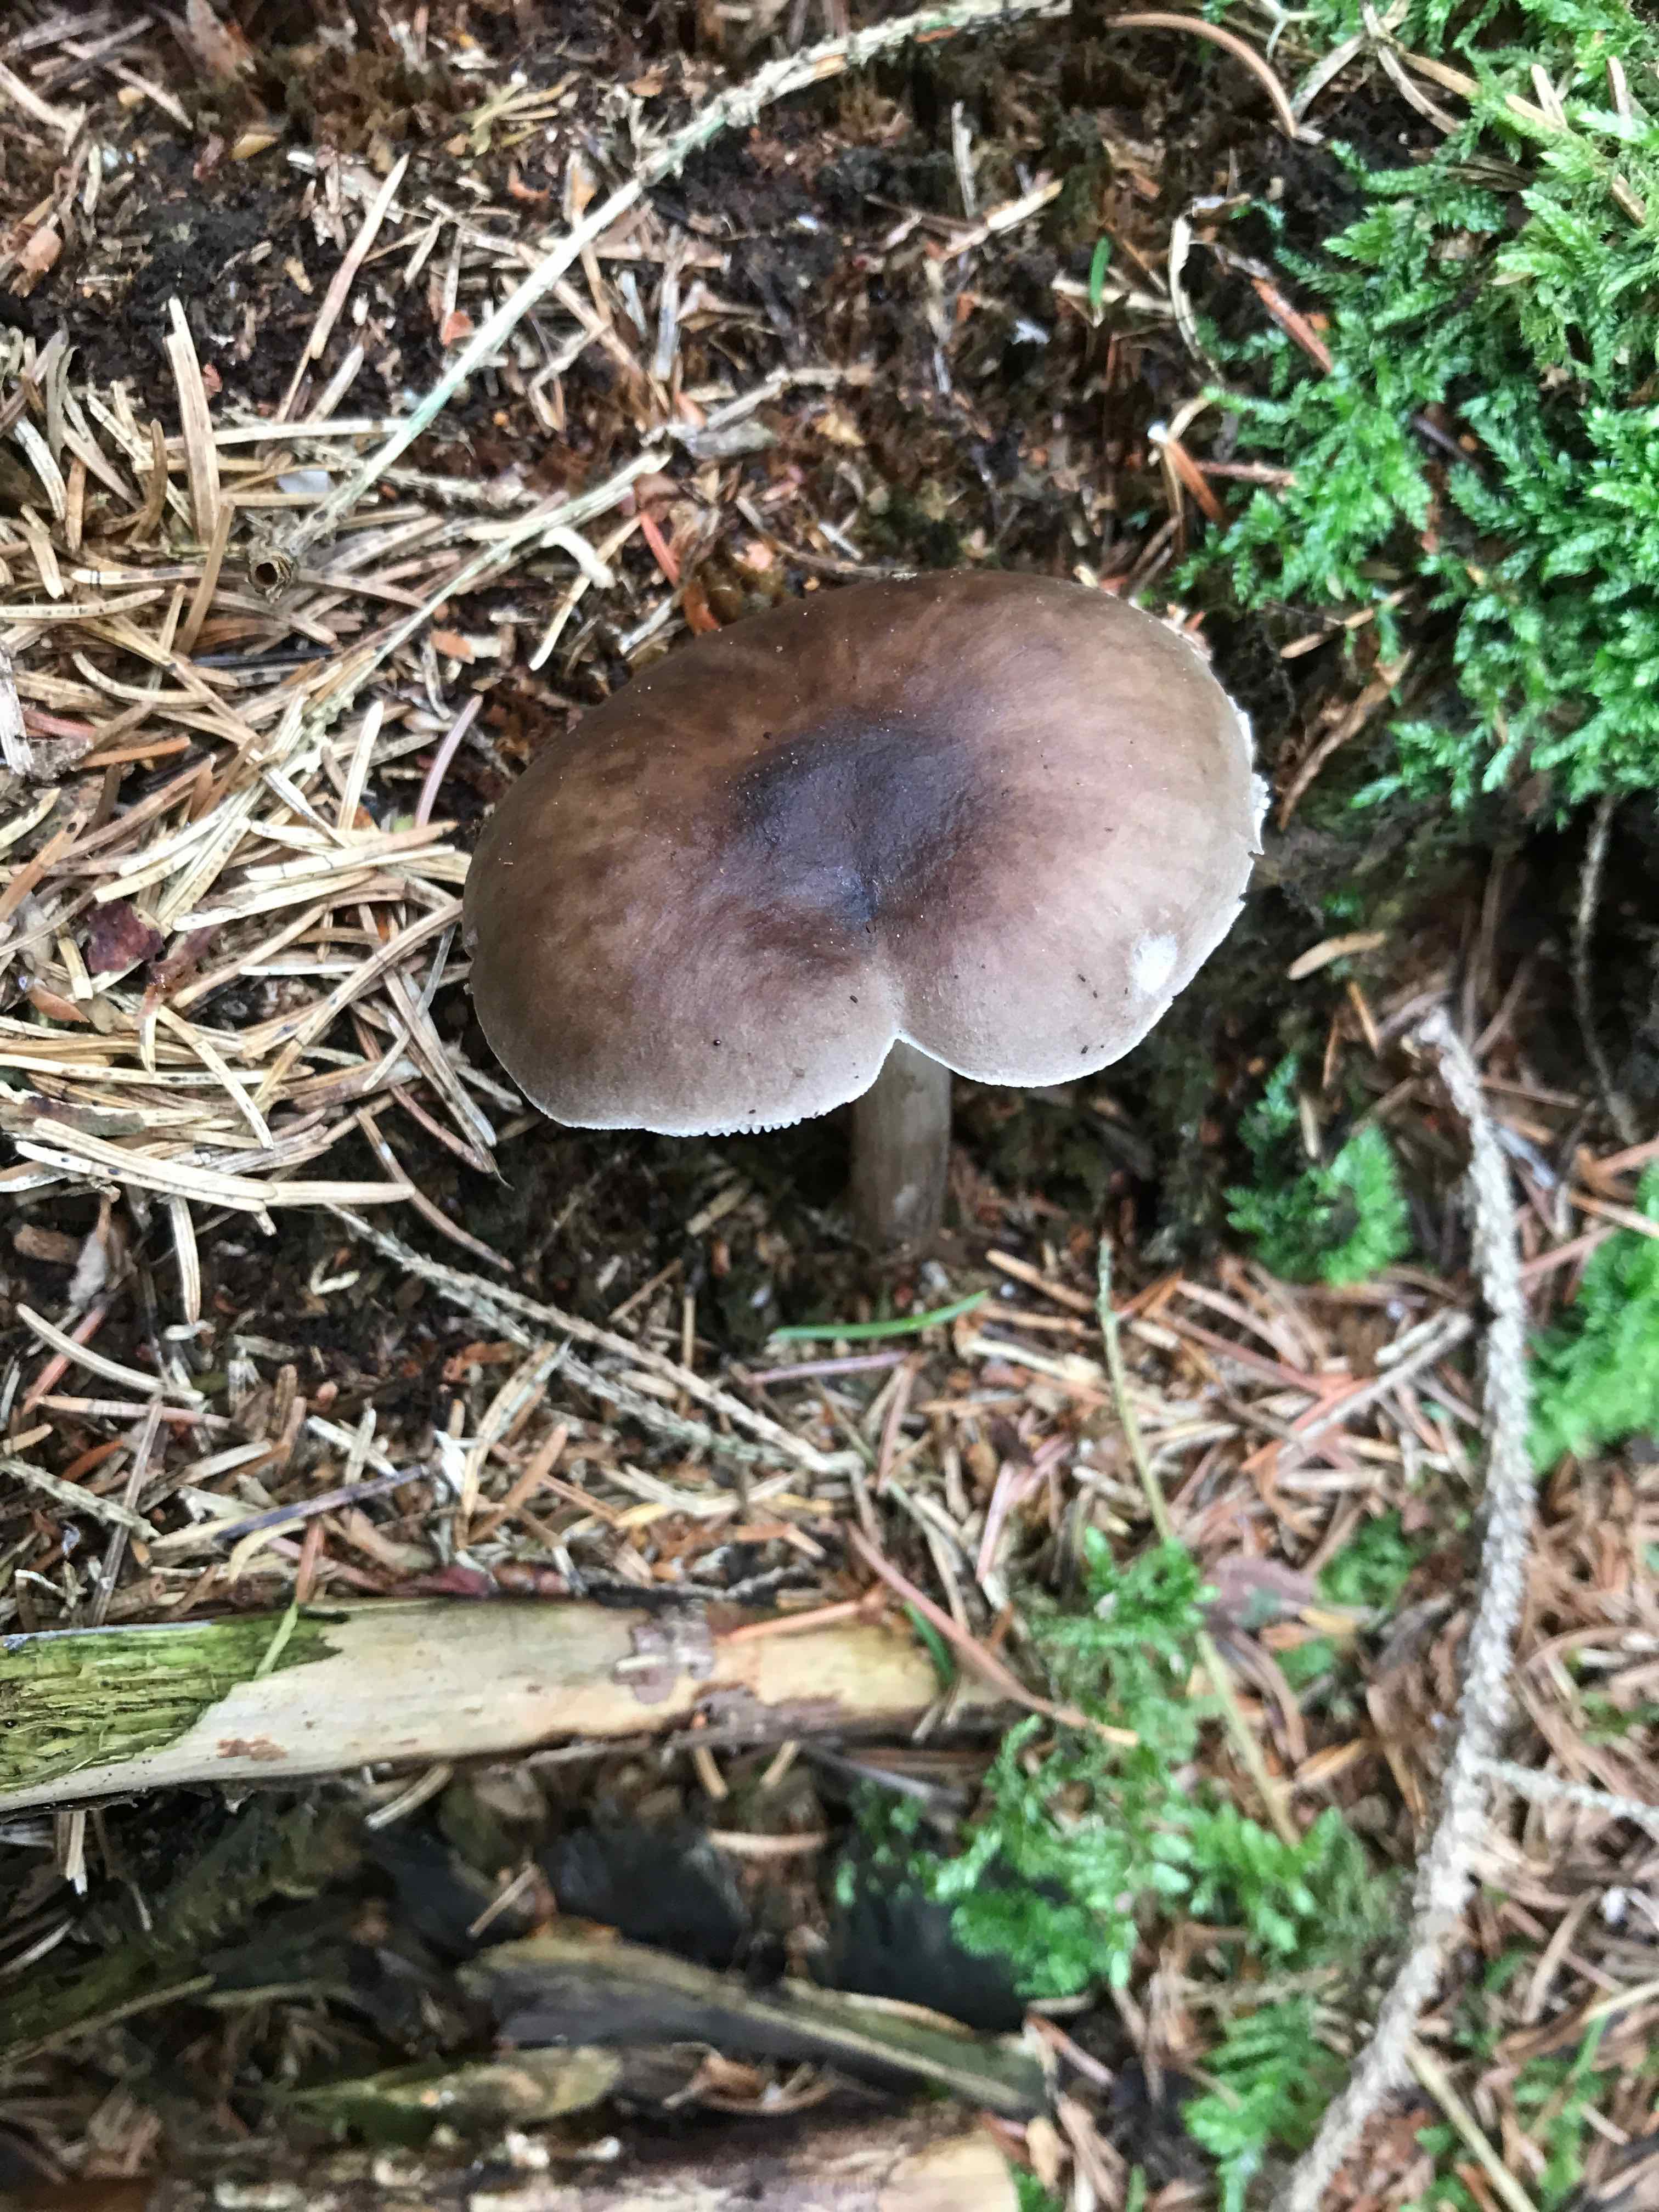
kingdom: Fungi
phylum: Basidiomycota
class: Agaricomycetes
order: Agaricales
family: Pluteaceae
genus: Pluteus
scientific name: Pluteus
